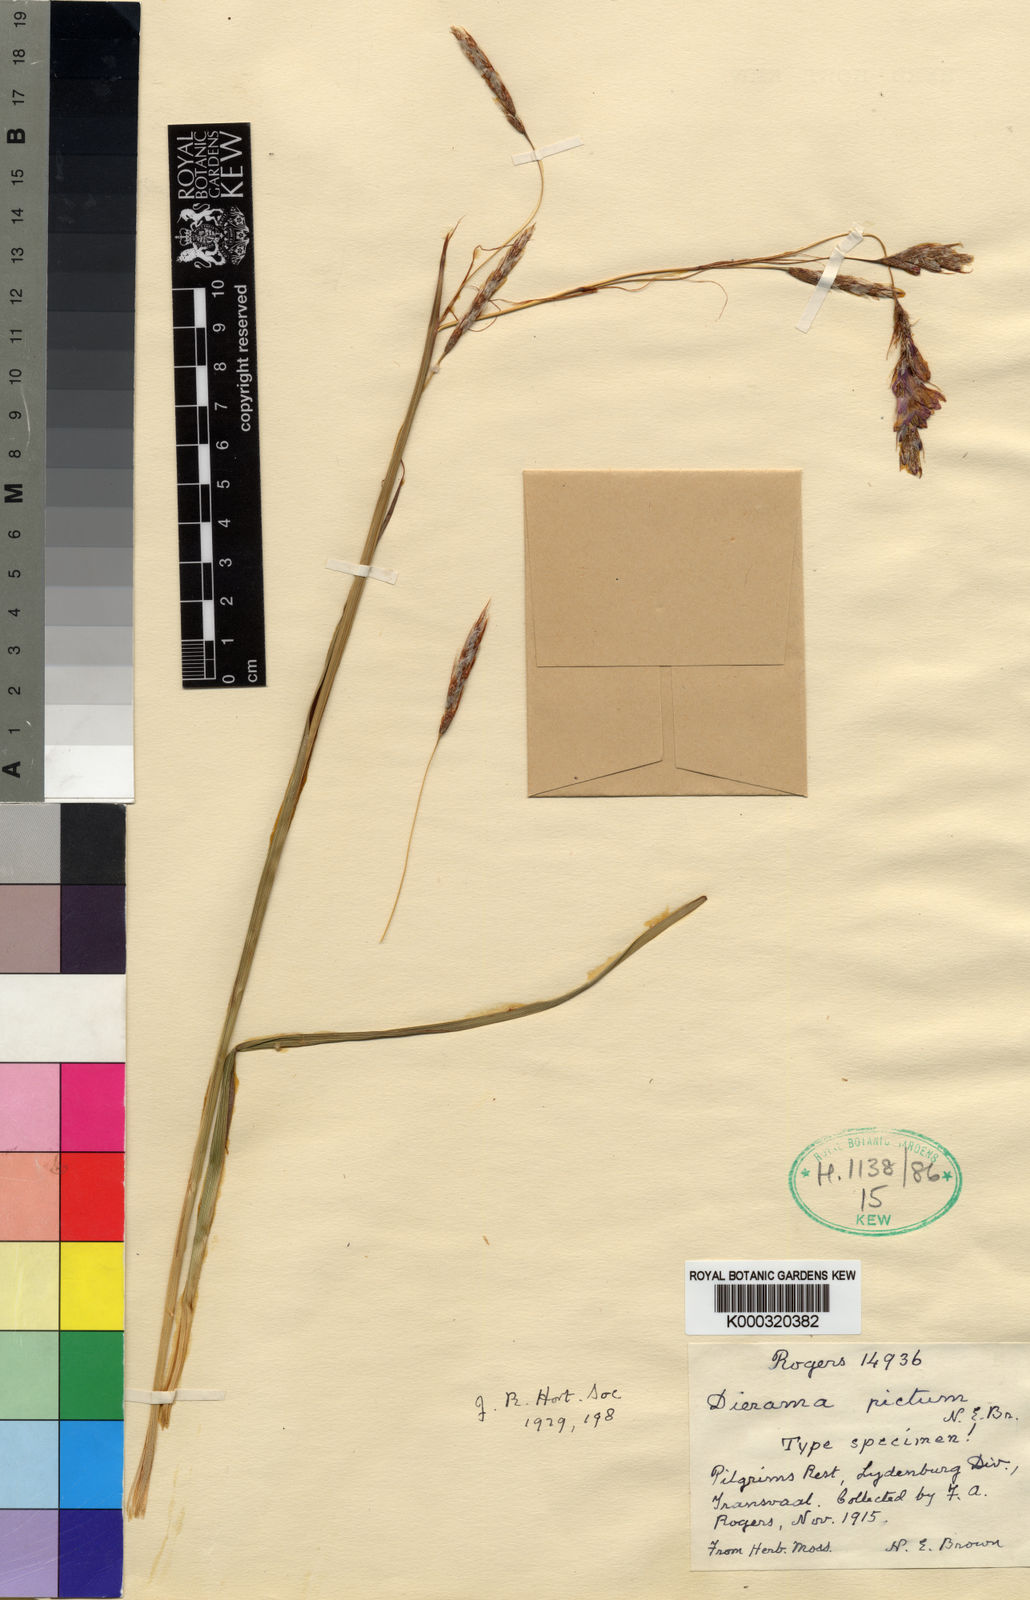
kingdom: Plantae
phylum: Tracheophyta
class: Liliopsida
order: Asparagales
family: Iridaceae
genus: Dierama
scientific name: Dierama pictum
